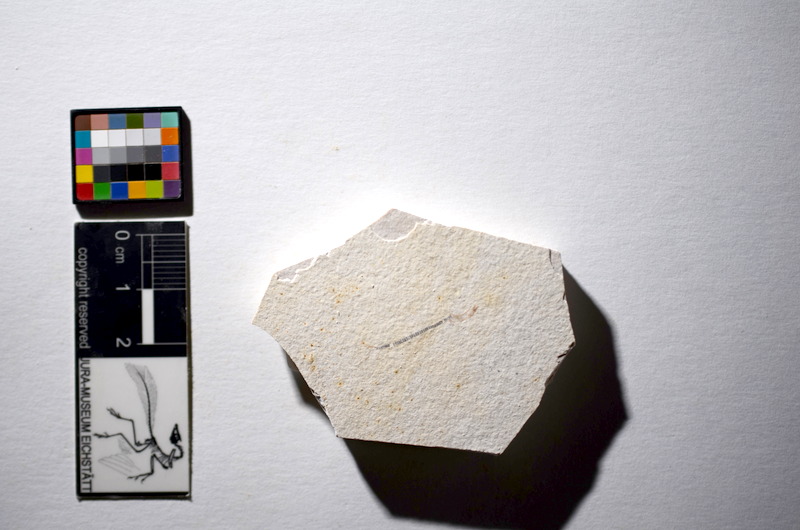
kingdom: Animalia
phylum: Chordata
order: Salmoniformes
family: Orthogonikleithridae
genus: Orthogonikleithrus
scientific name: Orthogonikleithrus hoelli
